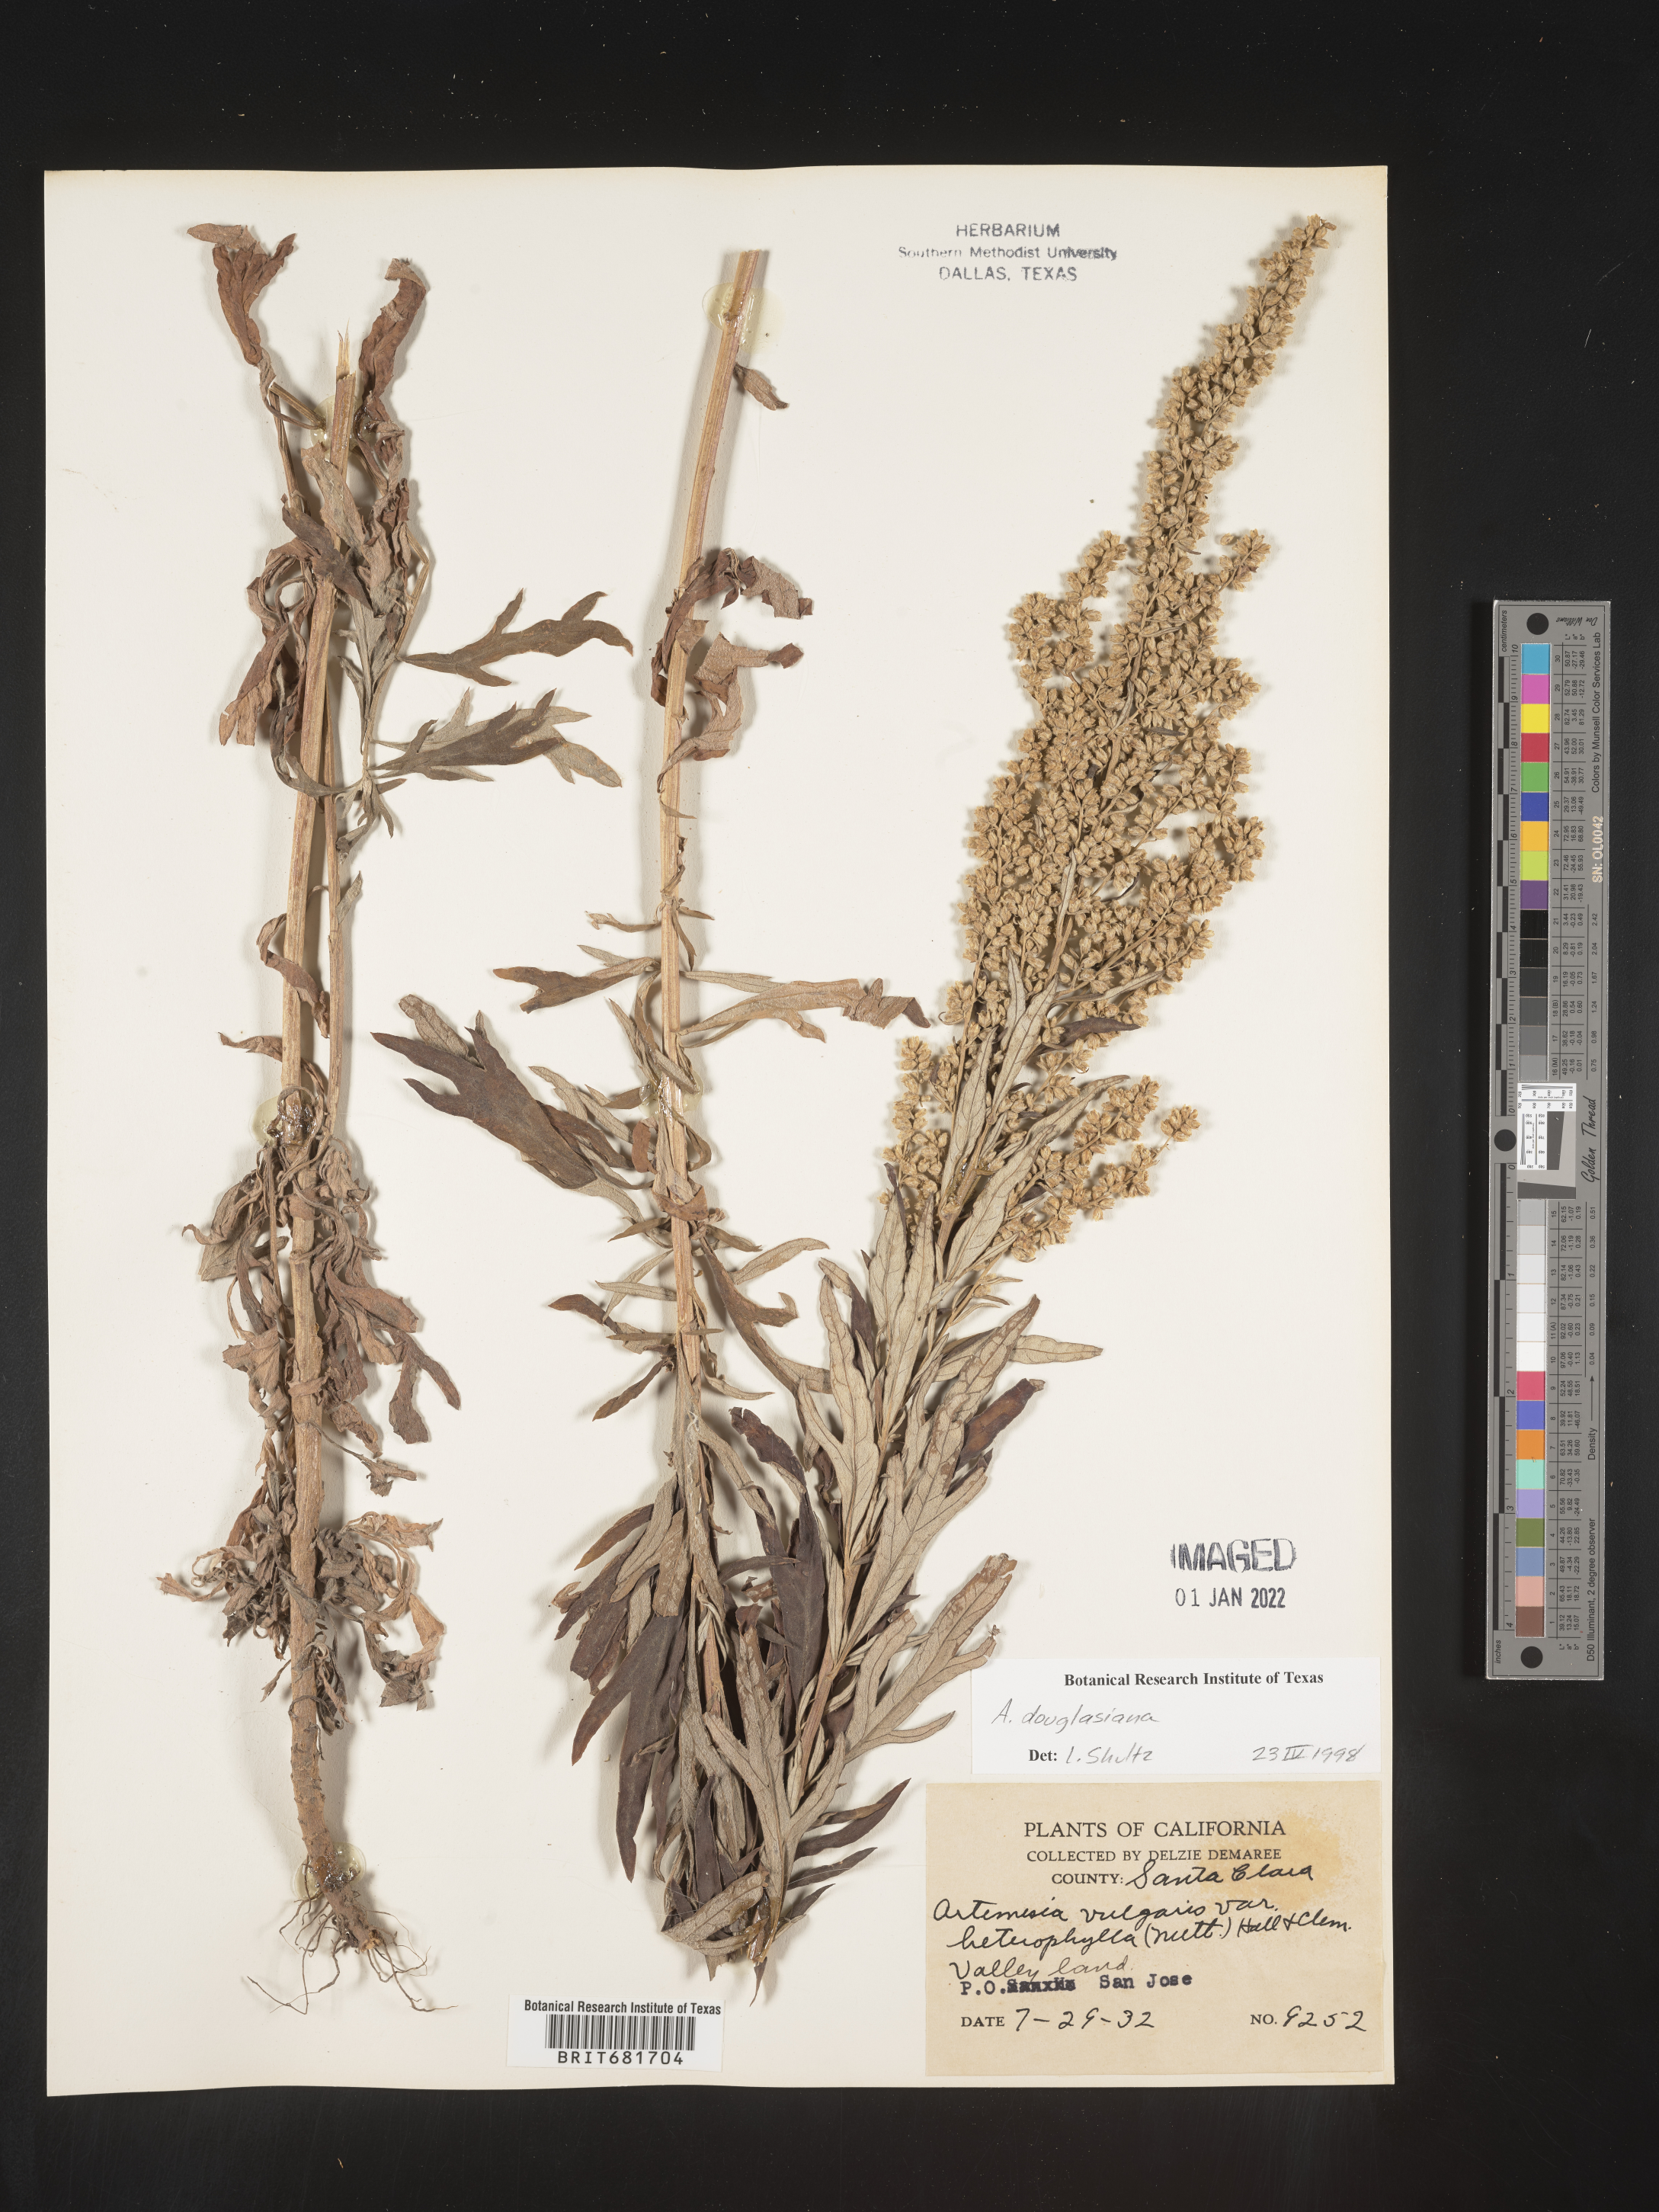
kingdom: Plantae
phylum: Tracheophyta
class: Magnoliopsida
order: Asterales
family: Asteraceae
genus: Artemisia
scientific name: Artemisia douglasiana
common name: Northwest mugwort
